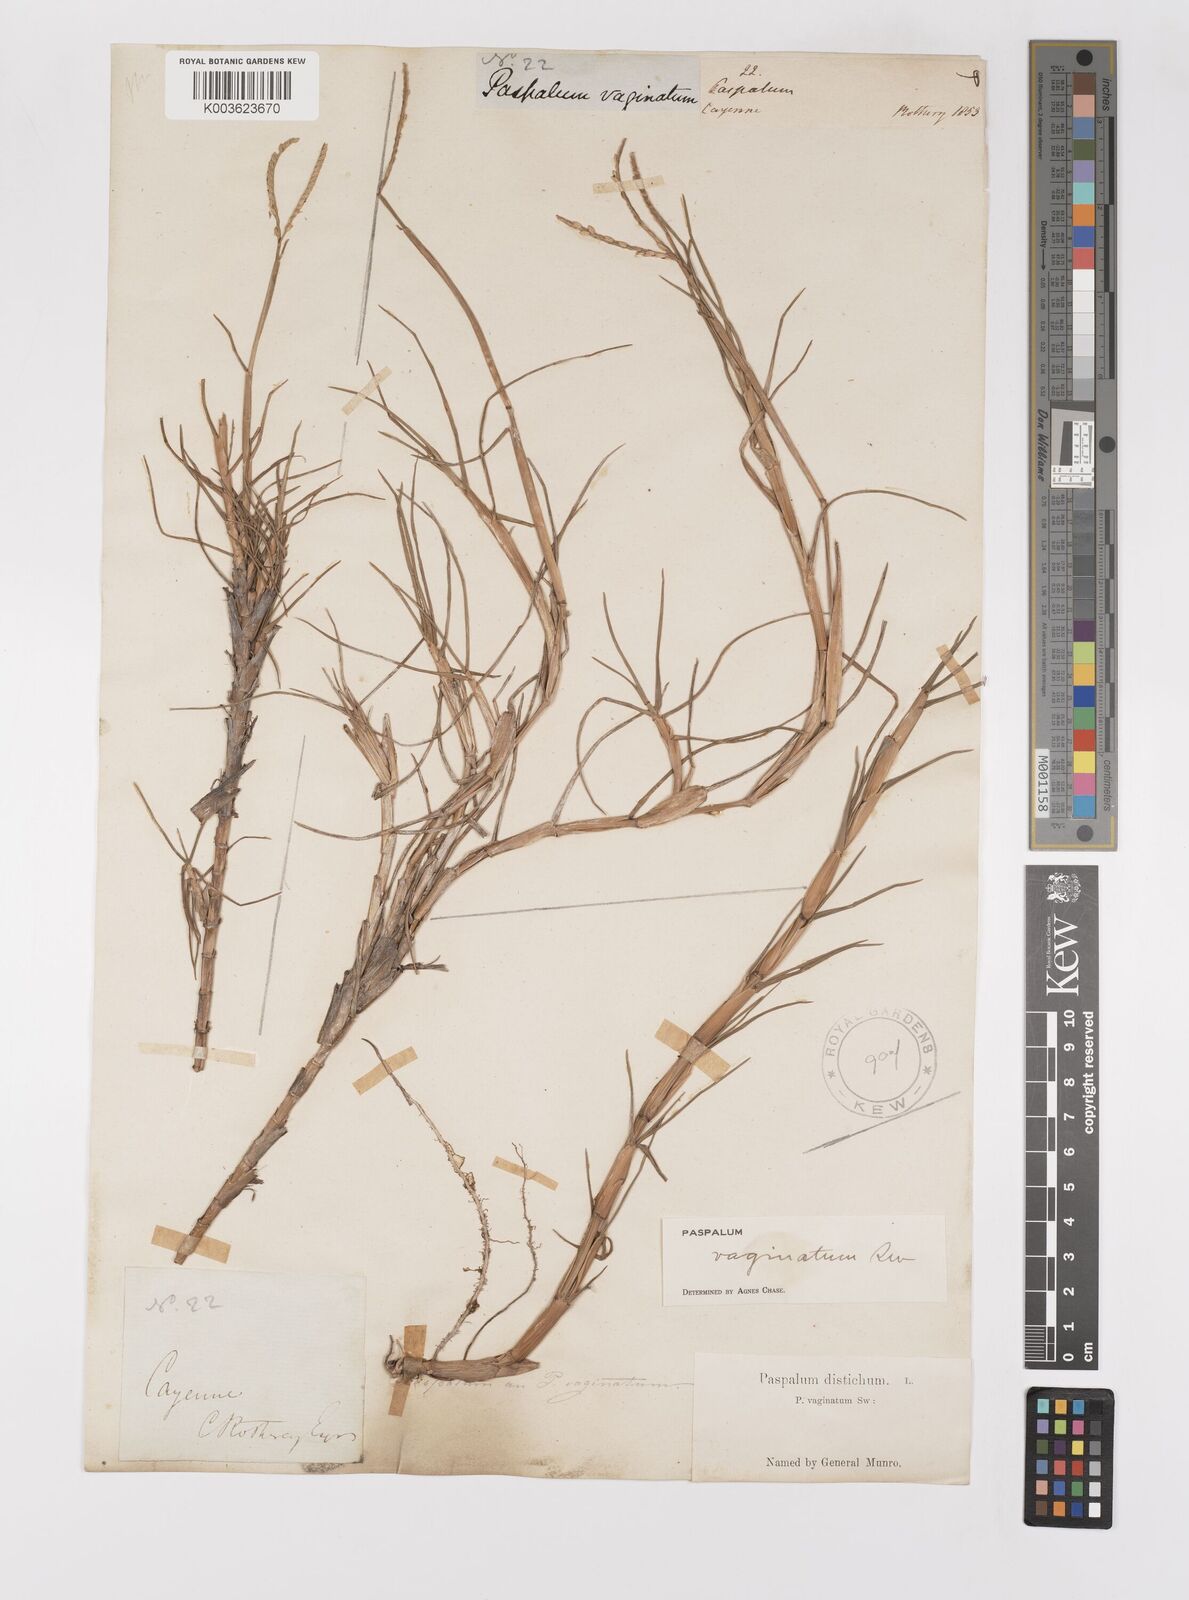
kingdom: Plantae
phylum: Tracheophyta
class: Liliopsida
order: Poales
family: Poaceae
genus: Paspalum
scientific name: Paspalum vaginatum
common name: Seashore paspalum
